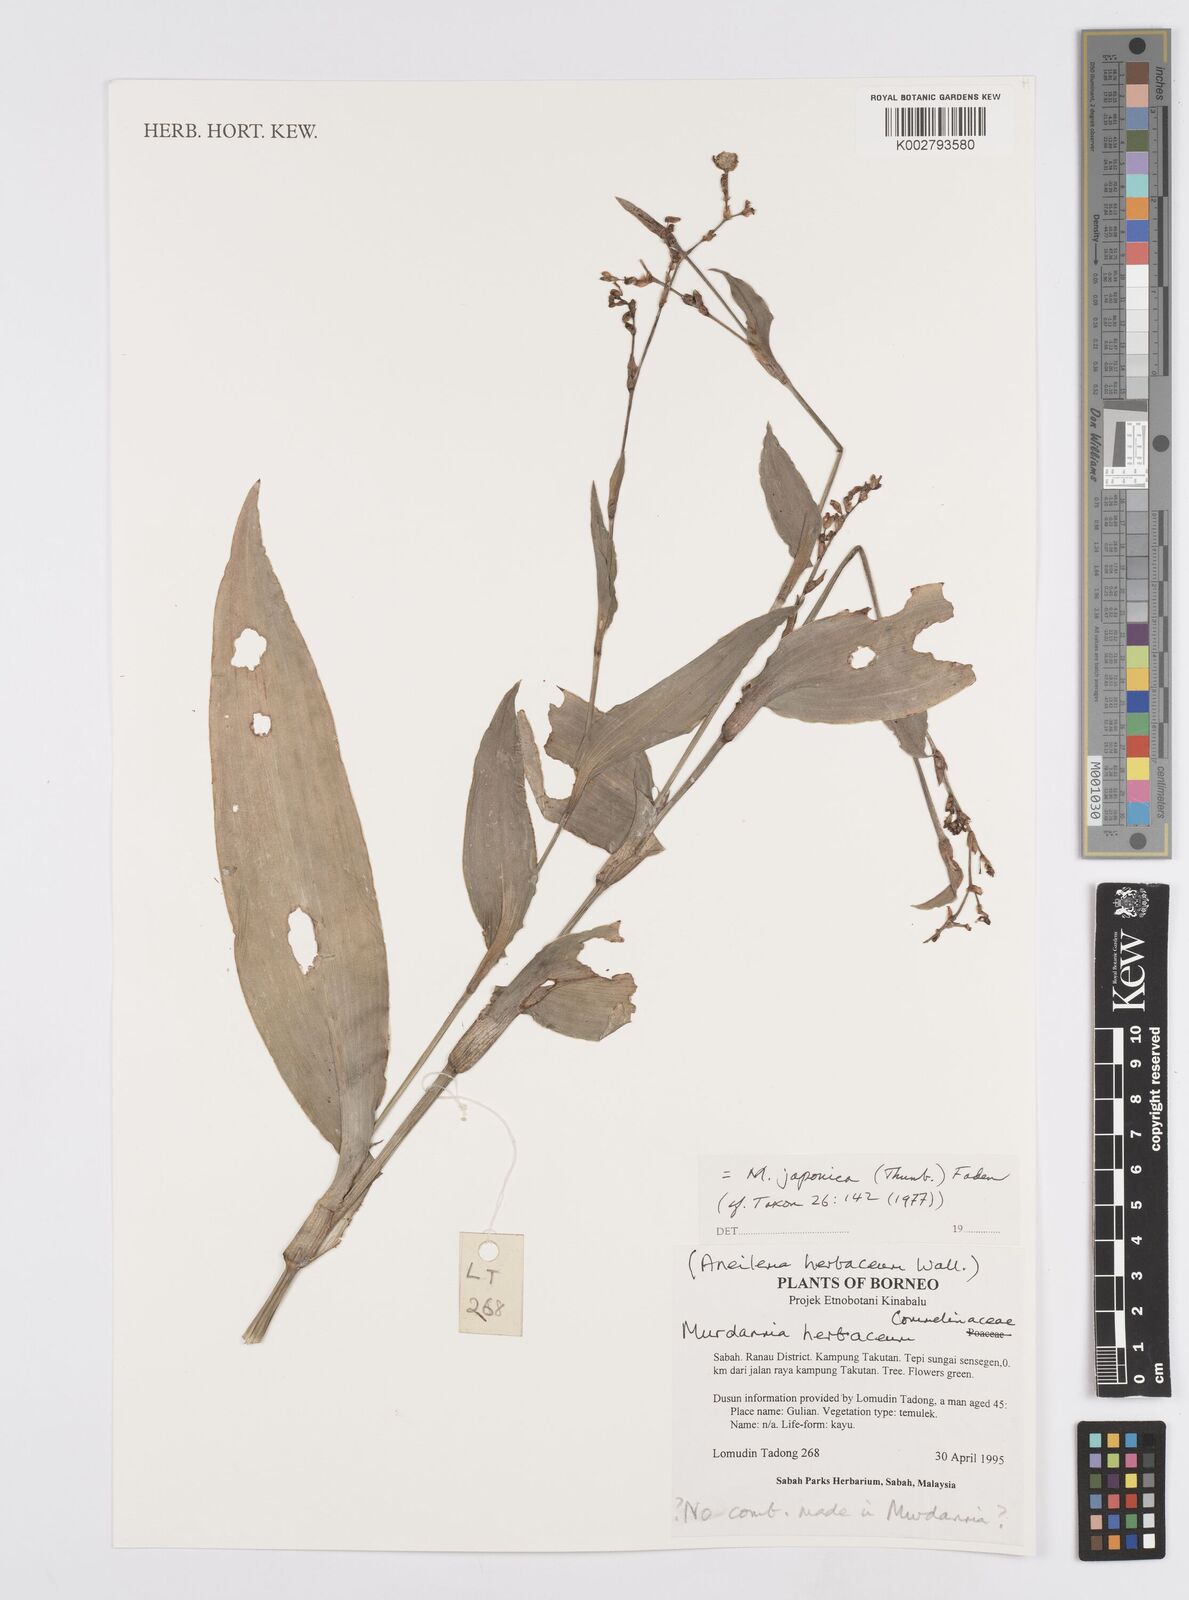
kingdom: Plantae
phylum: Tracheophyta
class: Liliopsida
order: Commelinales
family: Commelinaceae
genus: Murdannia
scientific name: Murdannia japonica
